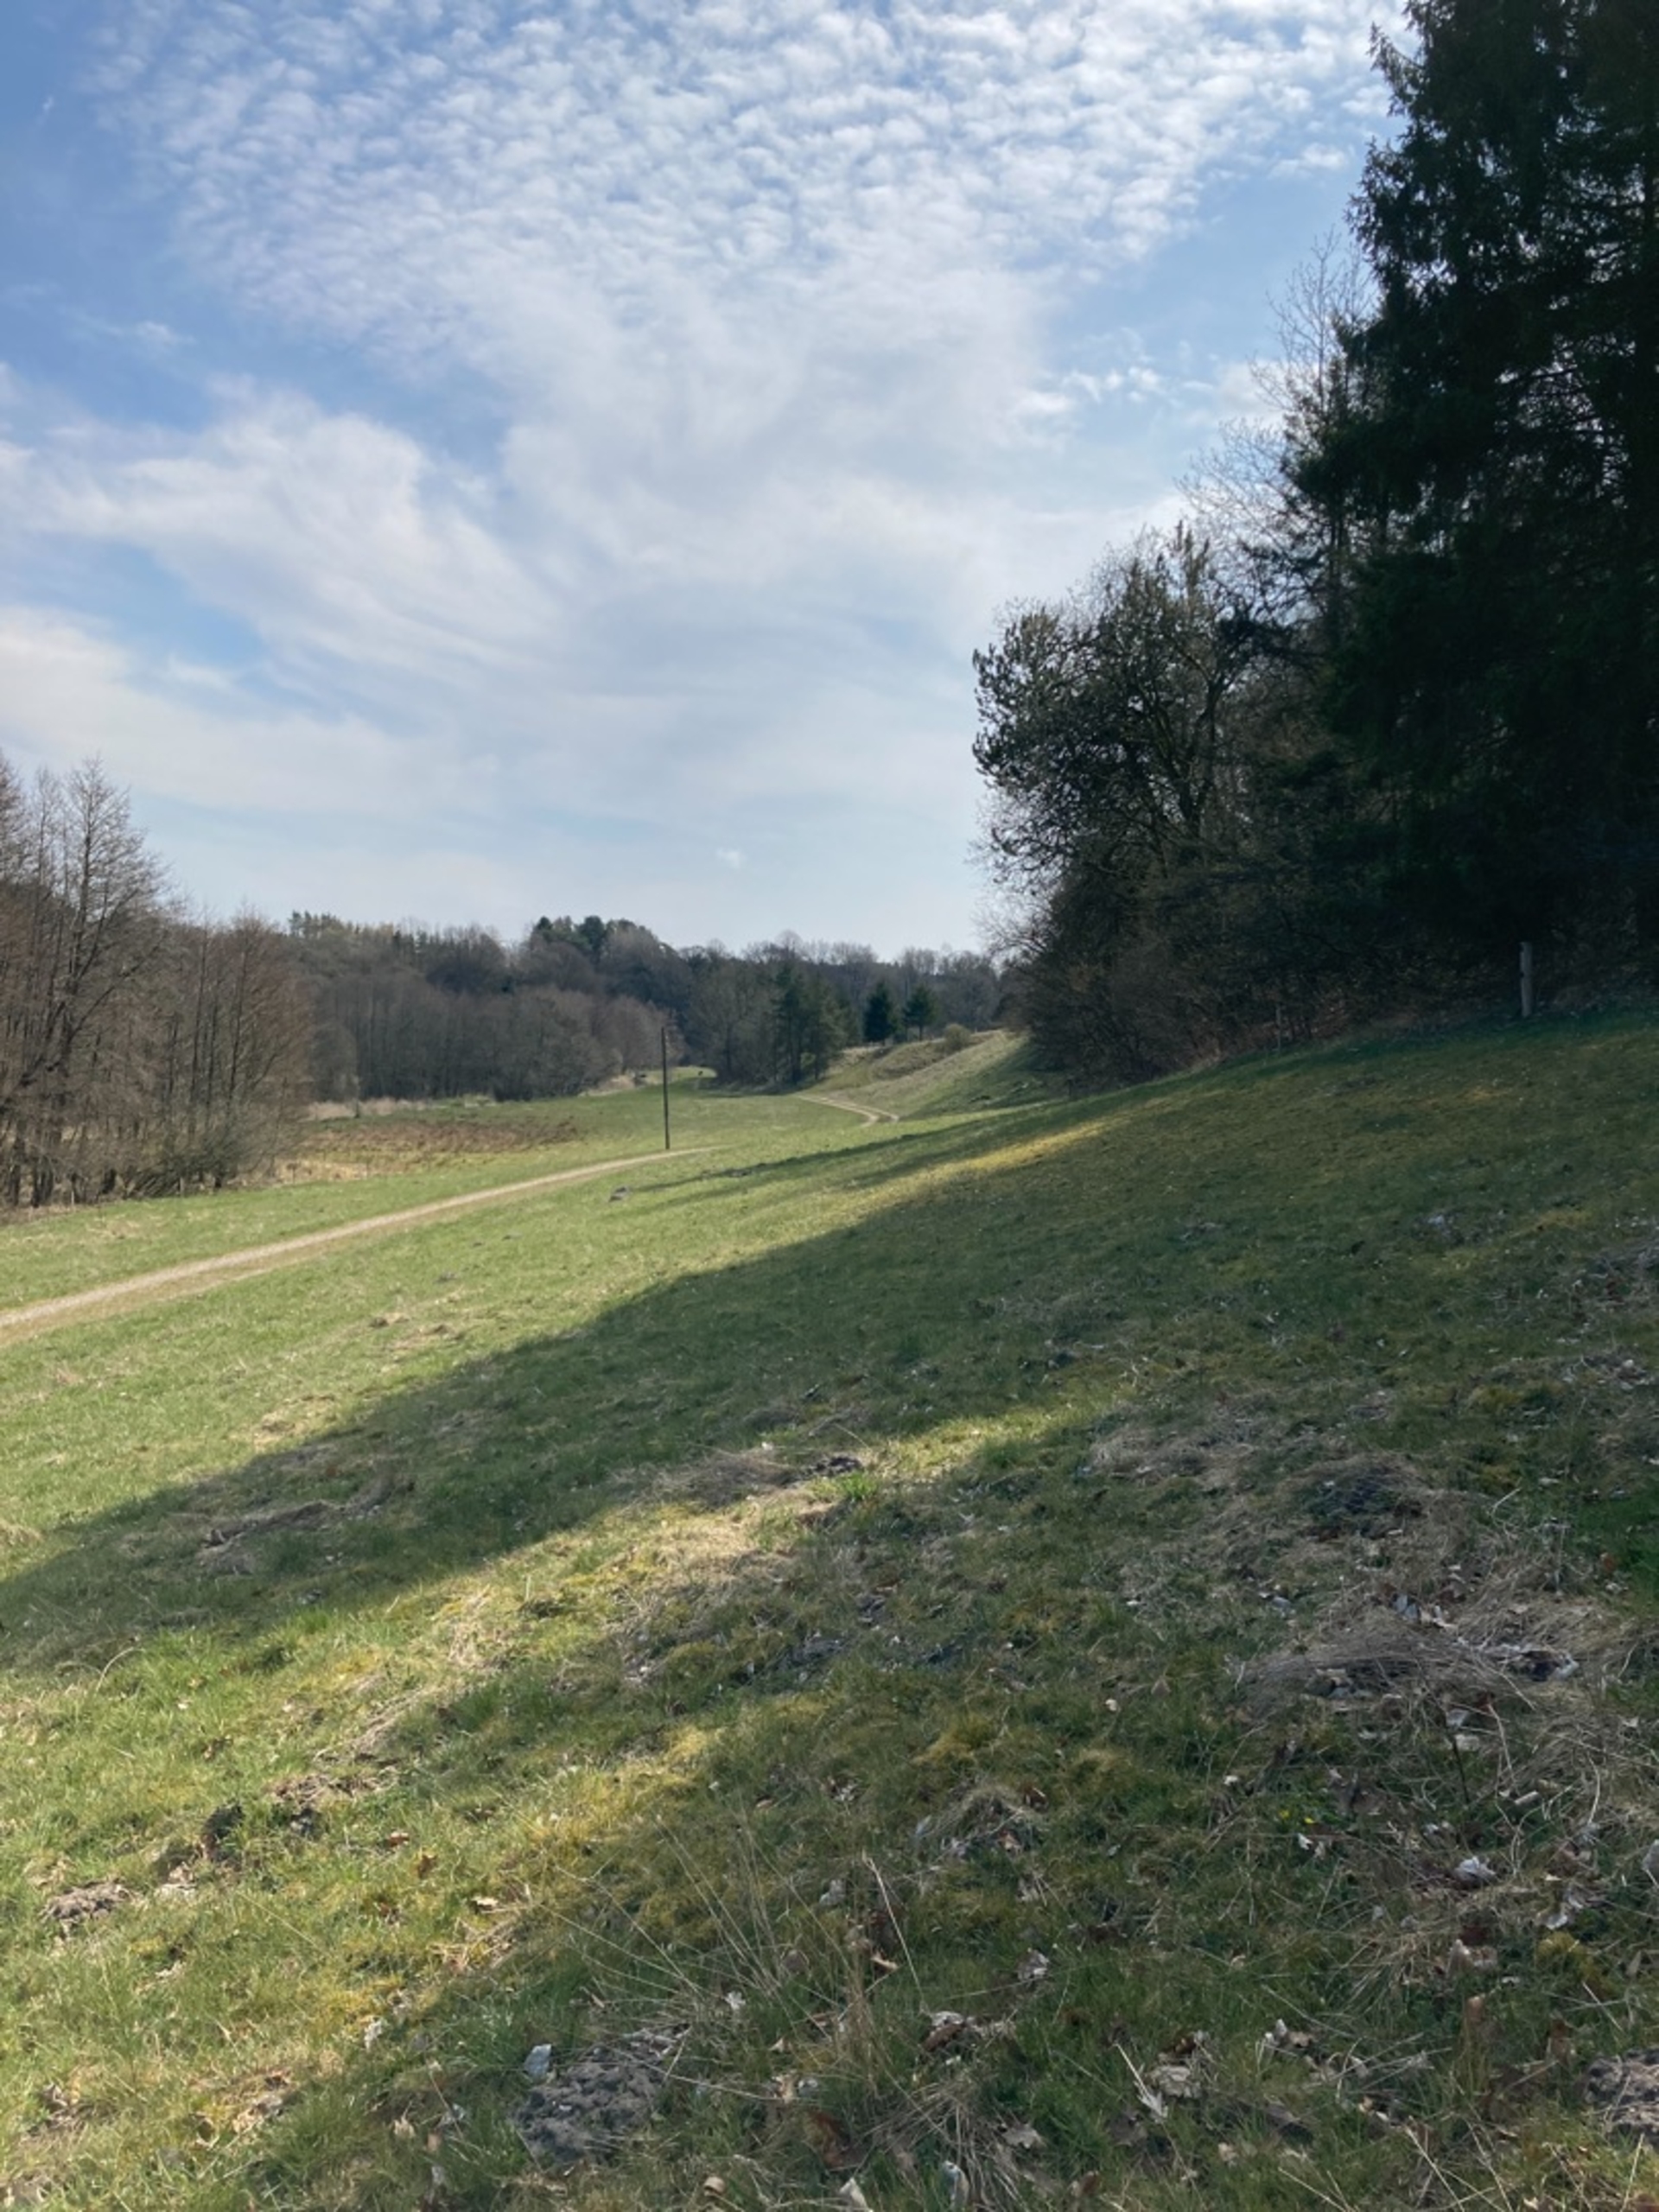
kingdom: Animalia
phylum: Chordata
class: Mammalia
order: Artiodactyla
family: Cervidae
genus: Capreolus
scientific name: Capreolus capreolus
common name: Rådyr
